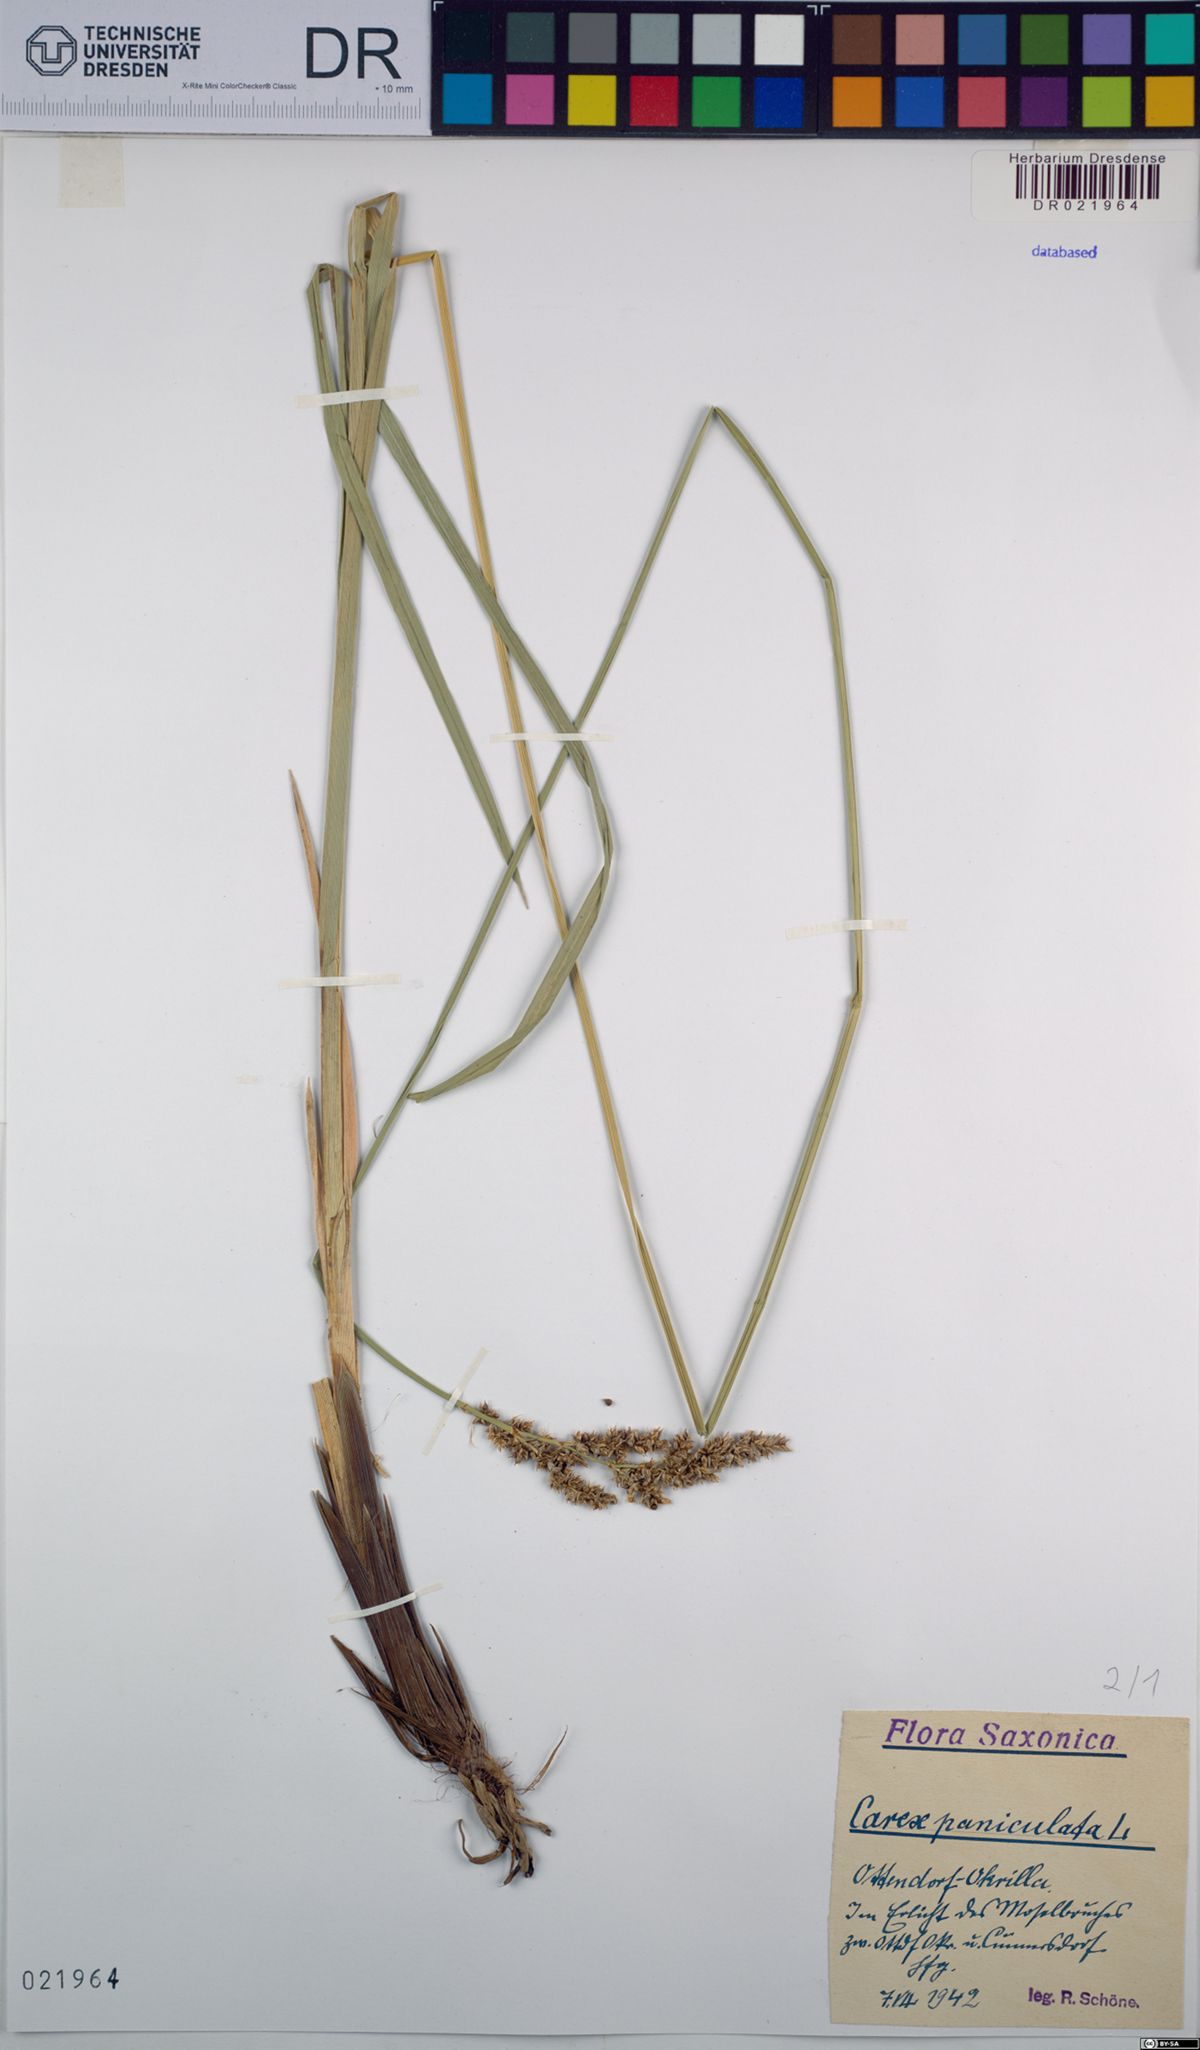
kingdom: Plantae
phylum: Tracheophyta
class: Liliopsida
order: Poales
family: Cyperaceae
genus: Carex
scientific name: Carex paniculata
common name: Greater tussock-sedge
